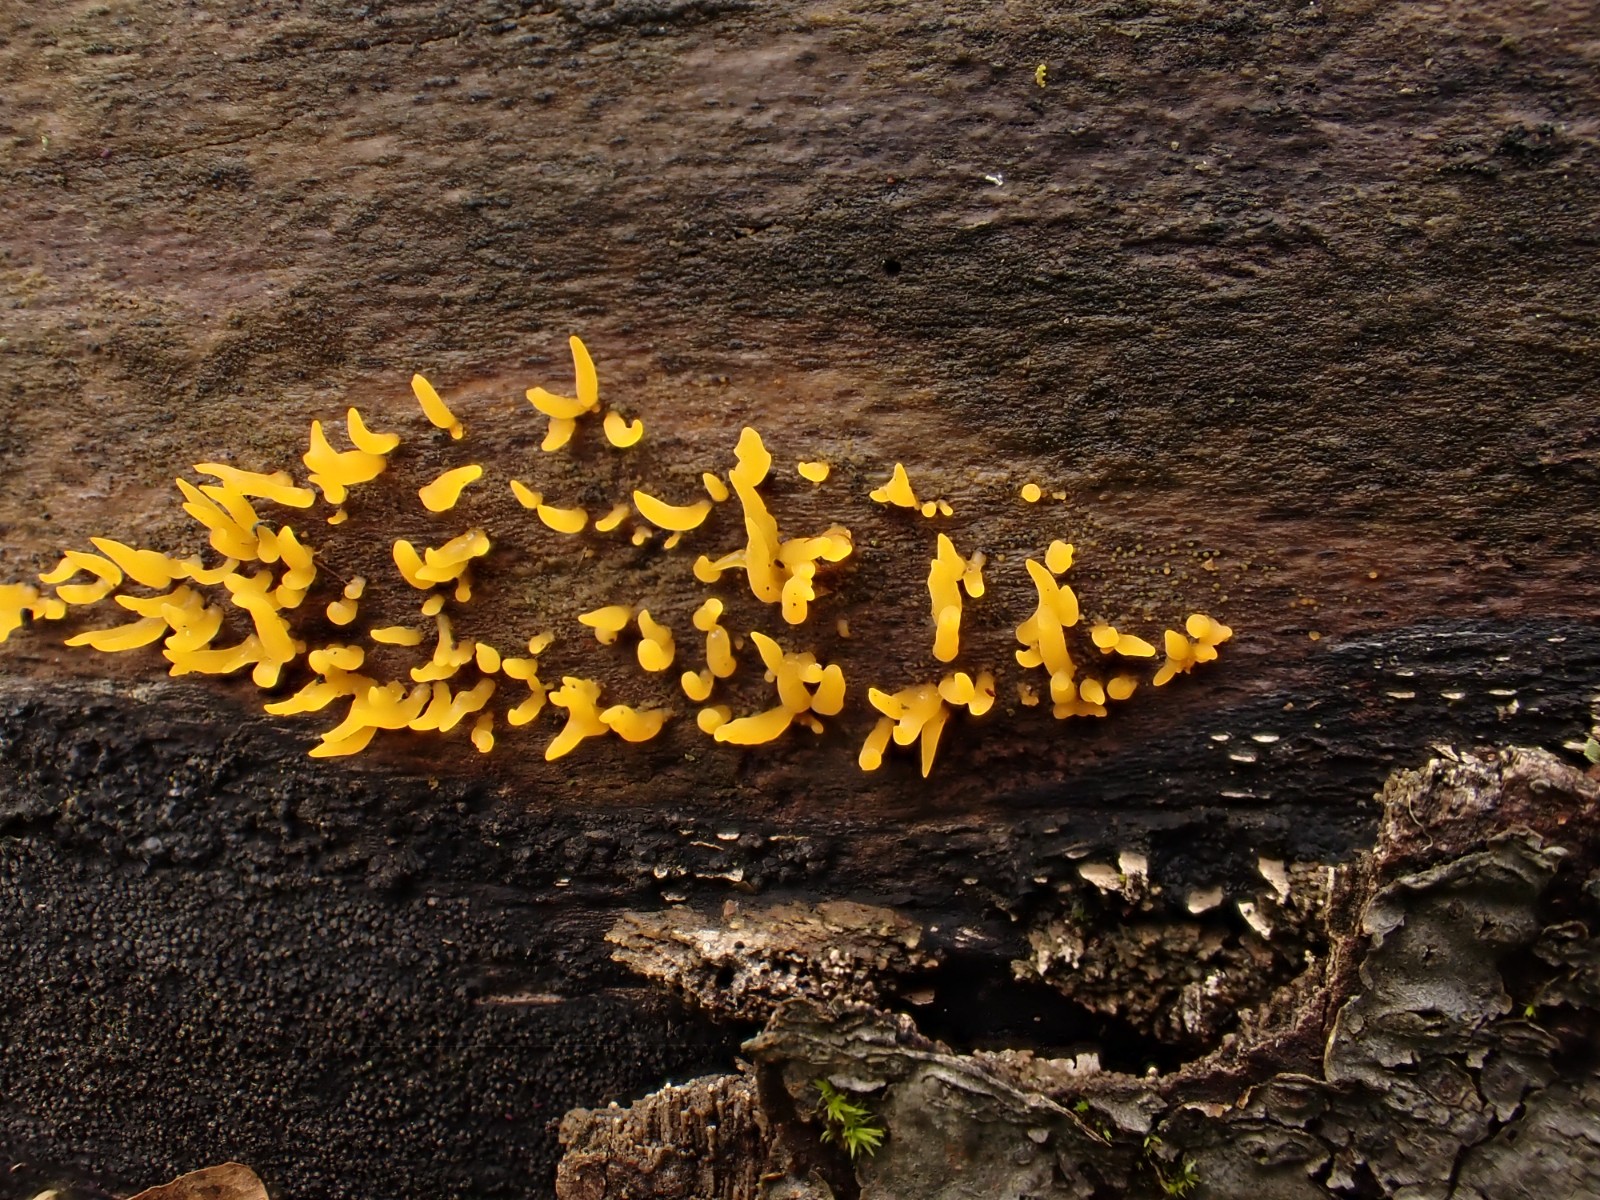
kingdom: Fungi
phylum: Basidiomycota
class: Dacrymycetes
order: Dacrymycetales
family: Dacrymycetaceae
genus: Calocera
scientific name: Calocera cornea
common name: liden guldgaffel
